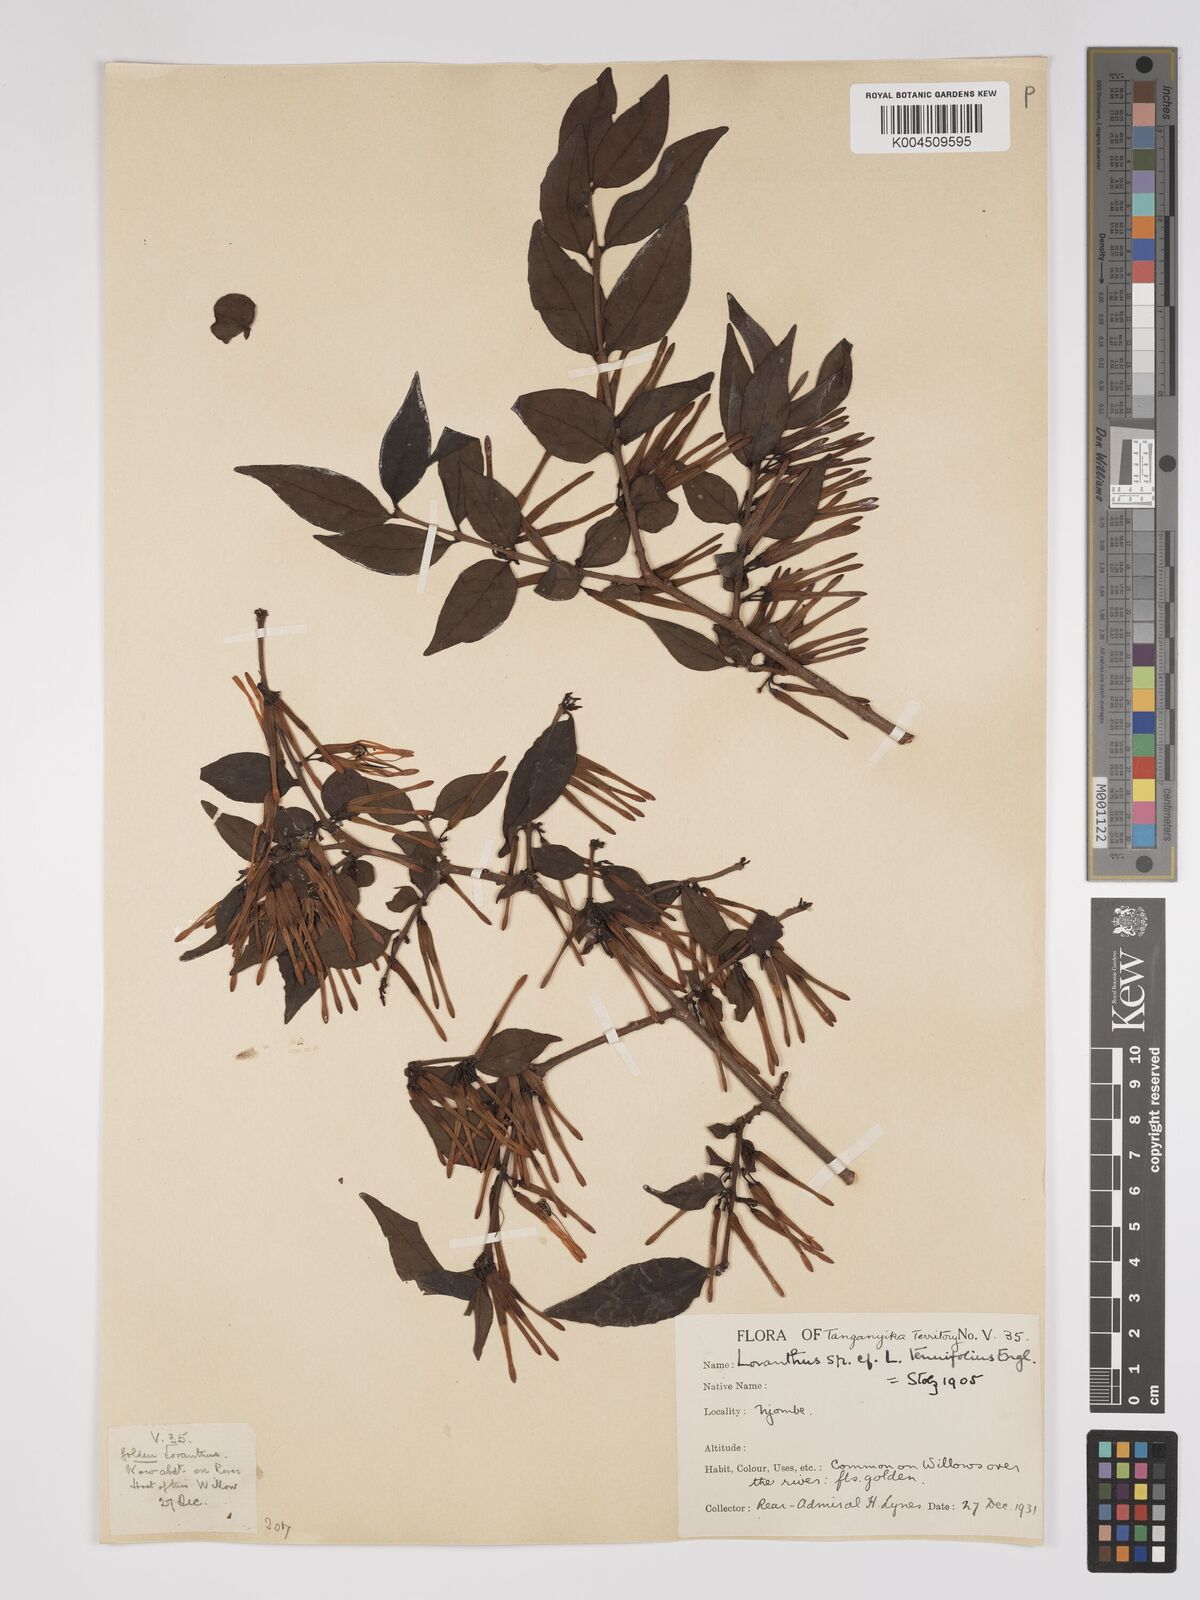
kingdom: Plantae
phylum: Tracheophyta
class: Magnoliopsida
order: Santalales
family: Loranthaceae
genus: Englerina
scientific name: Englerina inaequilatera
